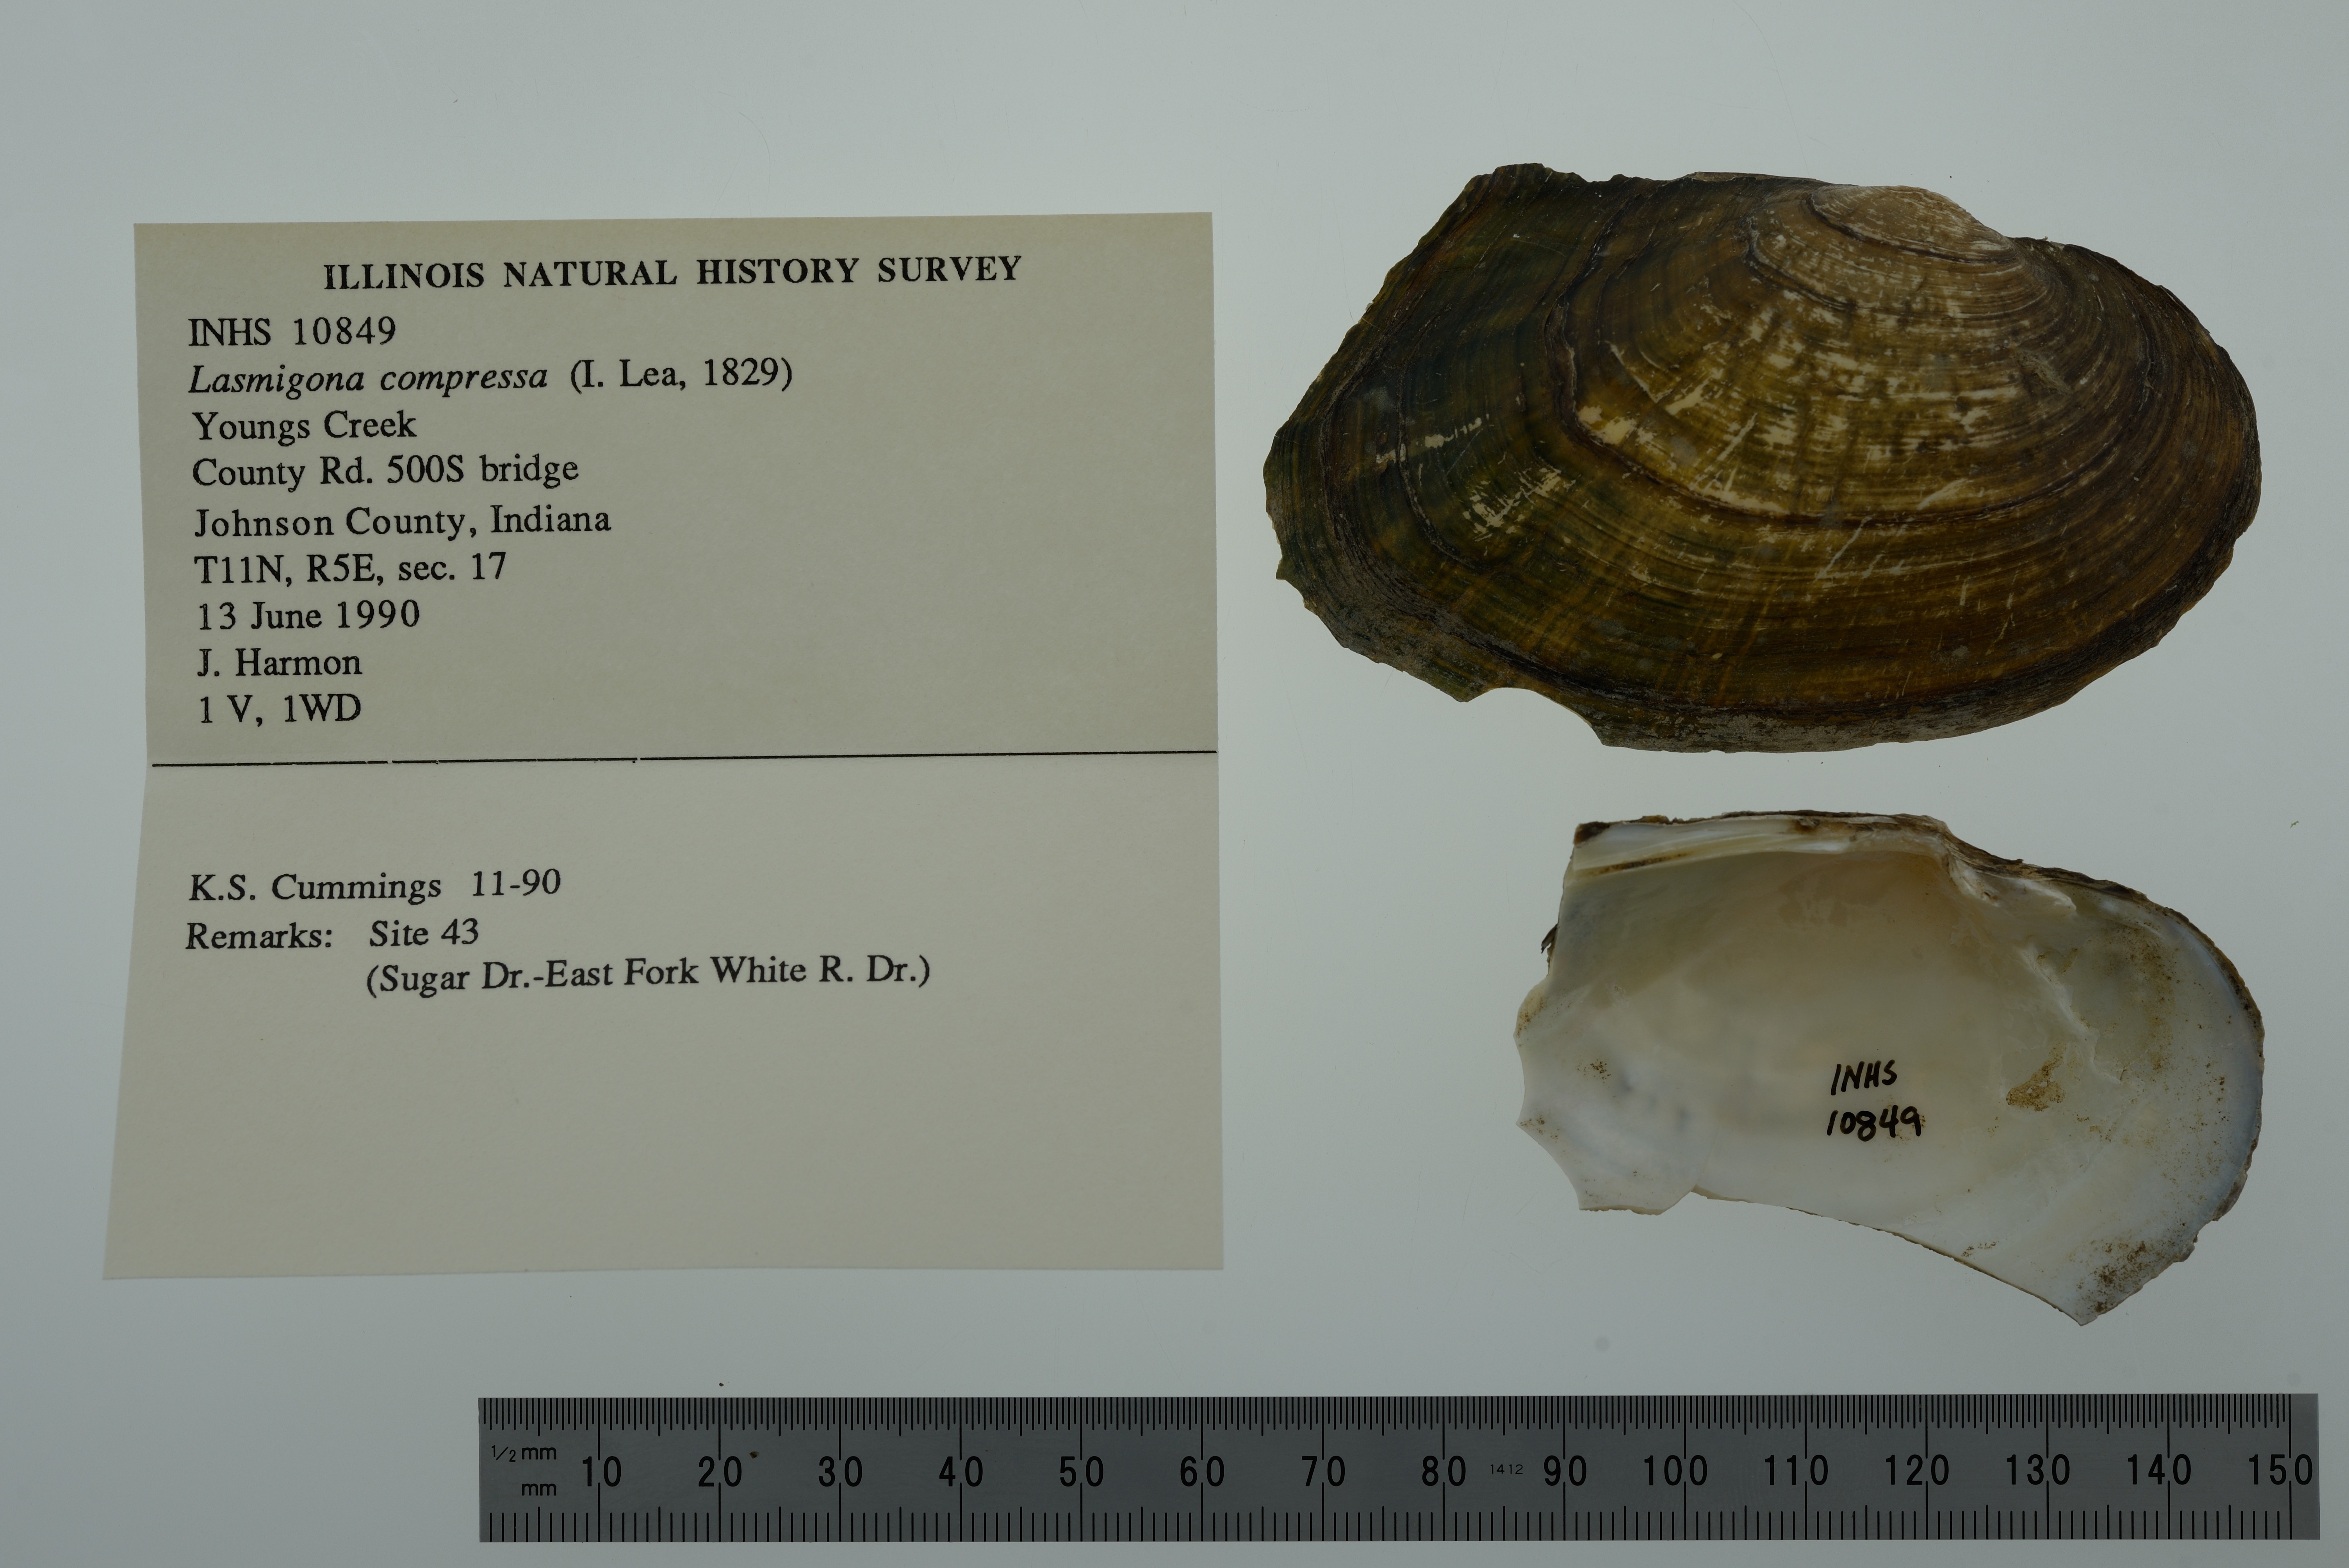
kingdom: Animalia
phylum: Mollusca
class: Bivalvia
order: Unionida
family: Unionidae
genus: Lasmigona
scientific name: Lasmigona compressa
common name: Creek heelsplitter
